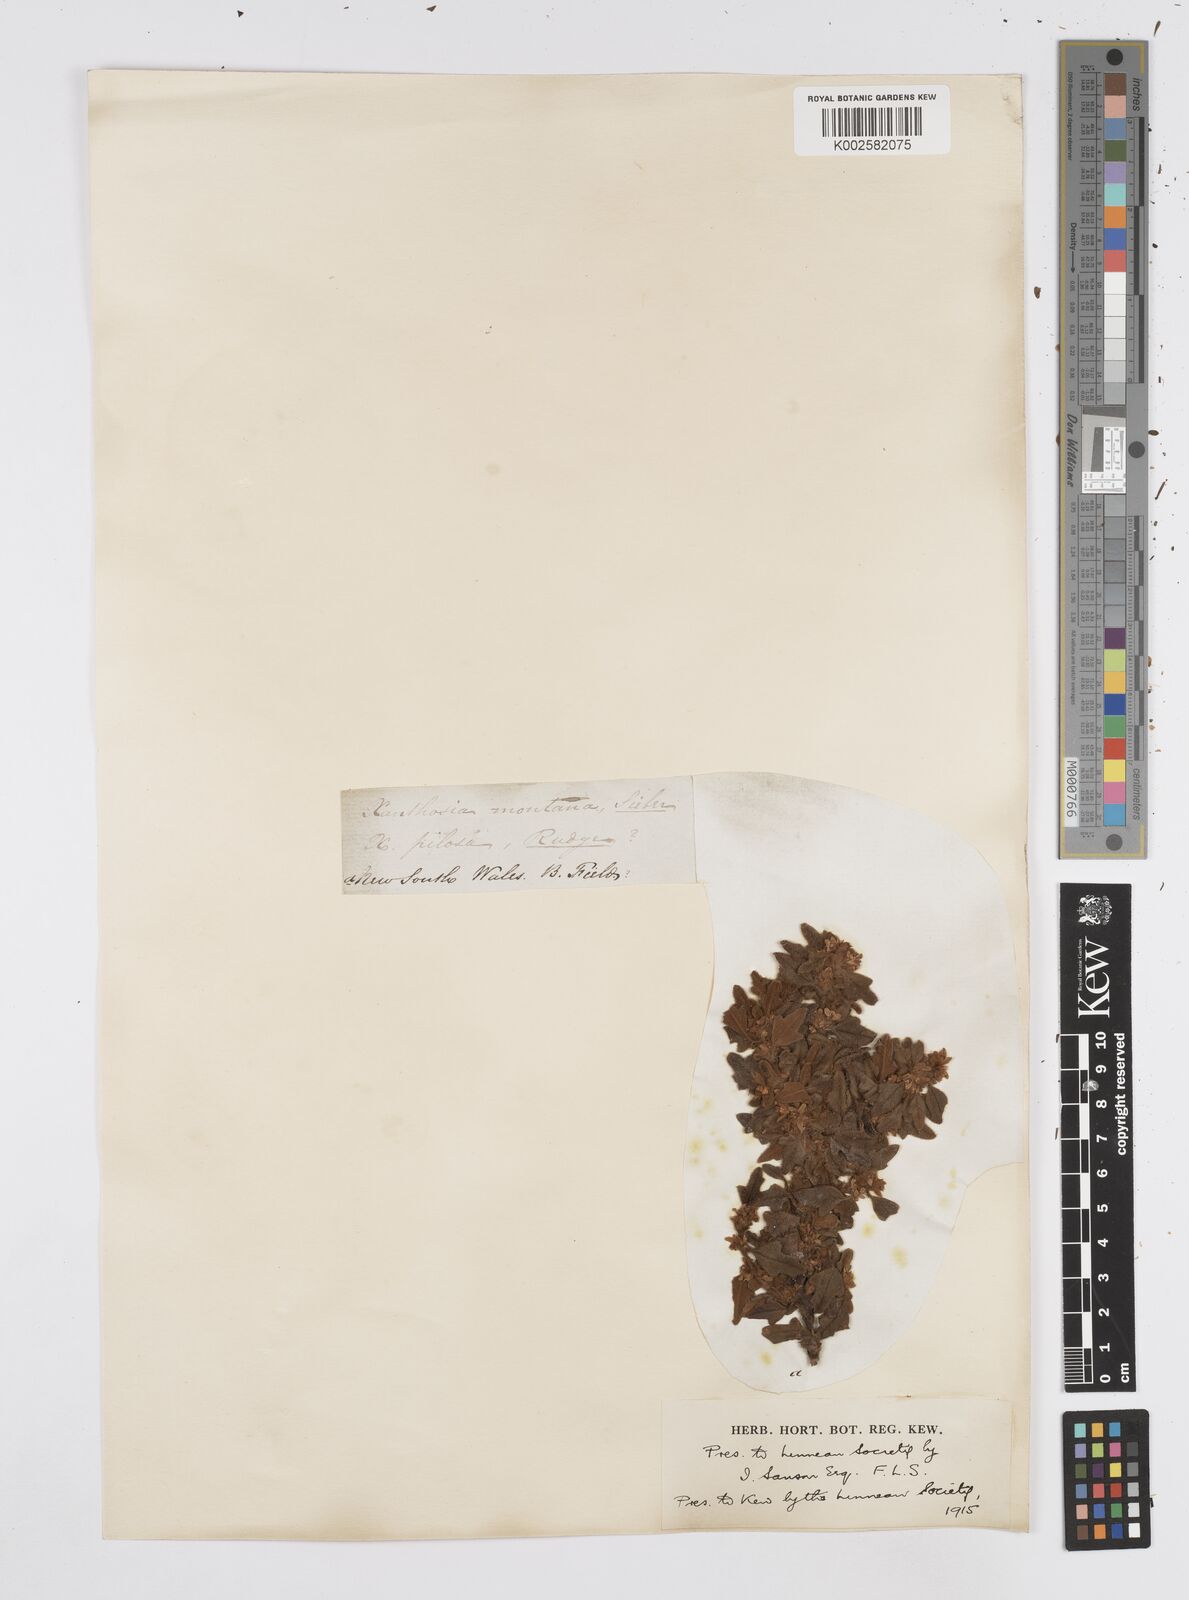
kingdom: Plantae
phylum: Tracheophyta
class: Magnoliopsida
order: Apiales
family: Apiaceae
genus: Xanthosia
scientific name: Xanthosia pilosa
